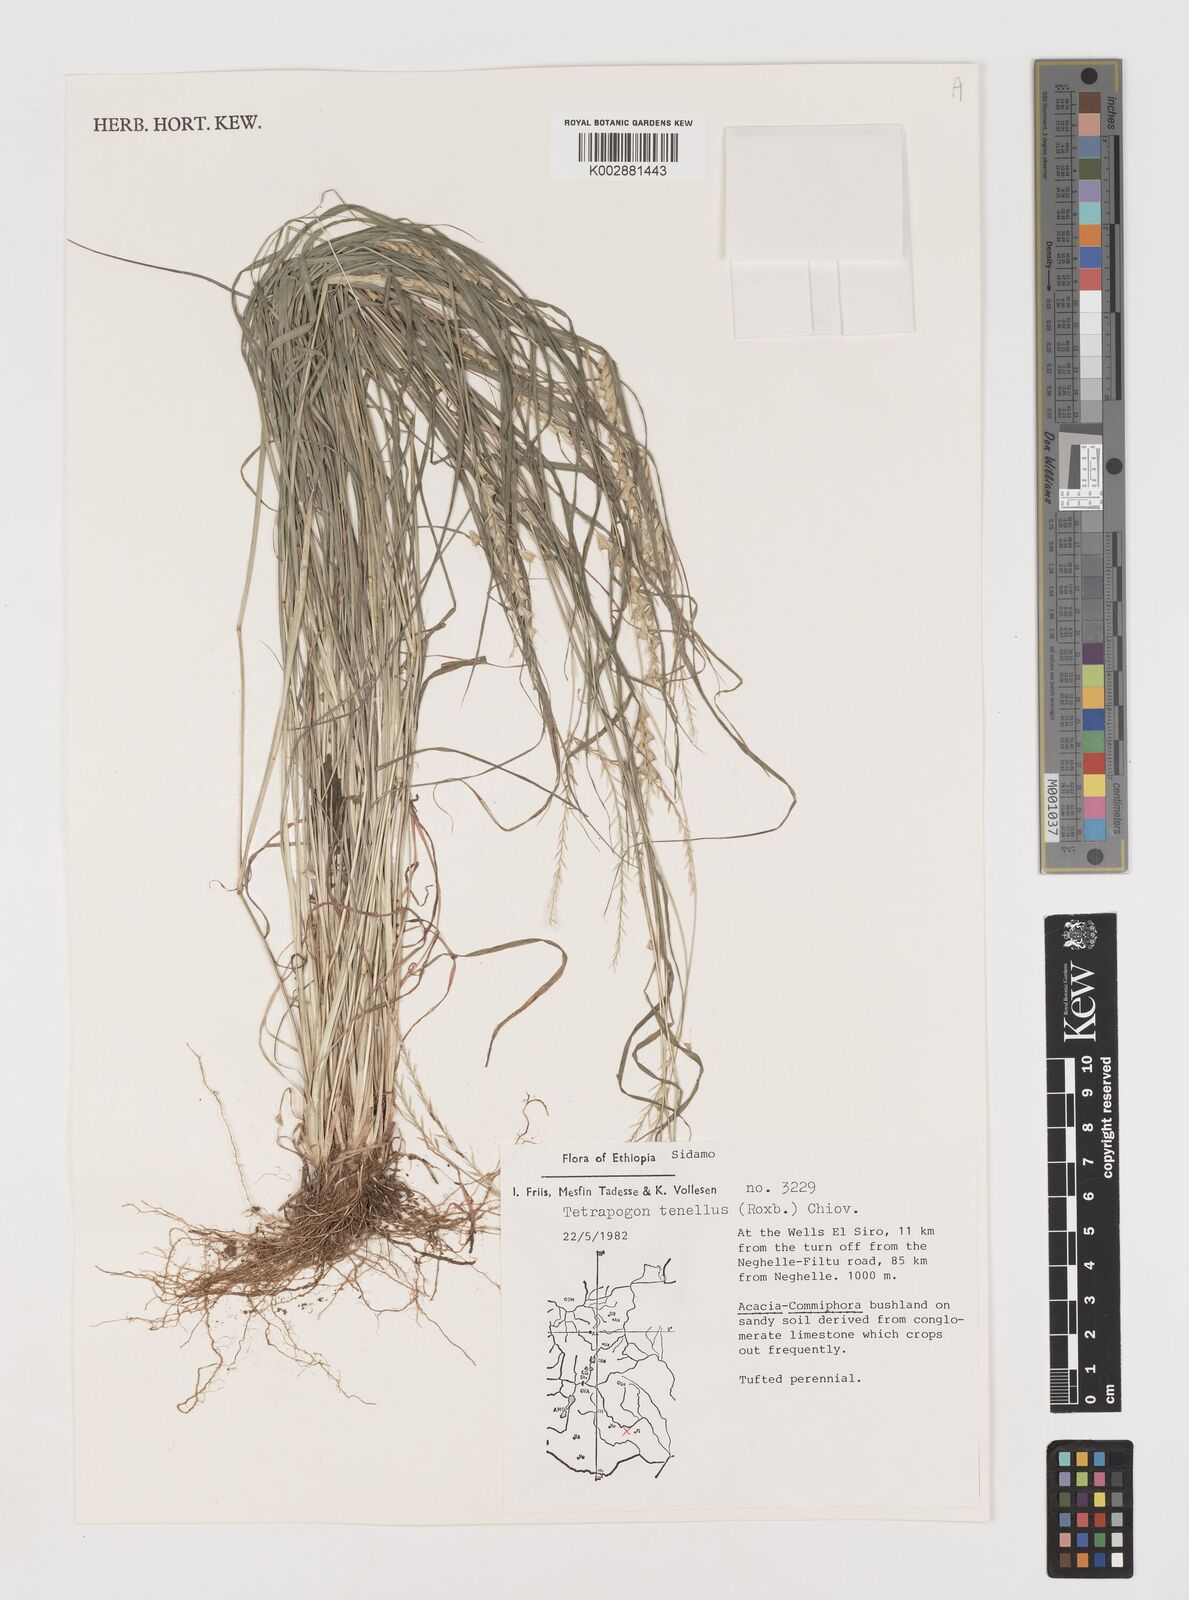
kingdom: Plantae
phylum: Tracheophyta
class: Liliopsida
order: Poales
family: Poaceae
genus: Tetrapogon
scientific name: Tetrapogon tenellus
